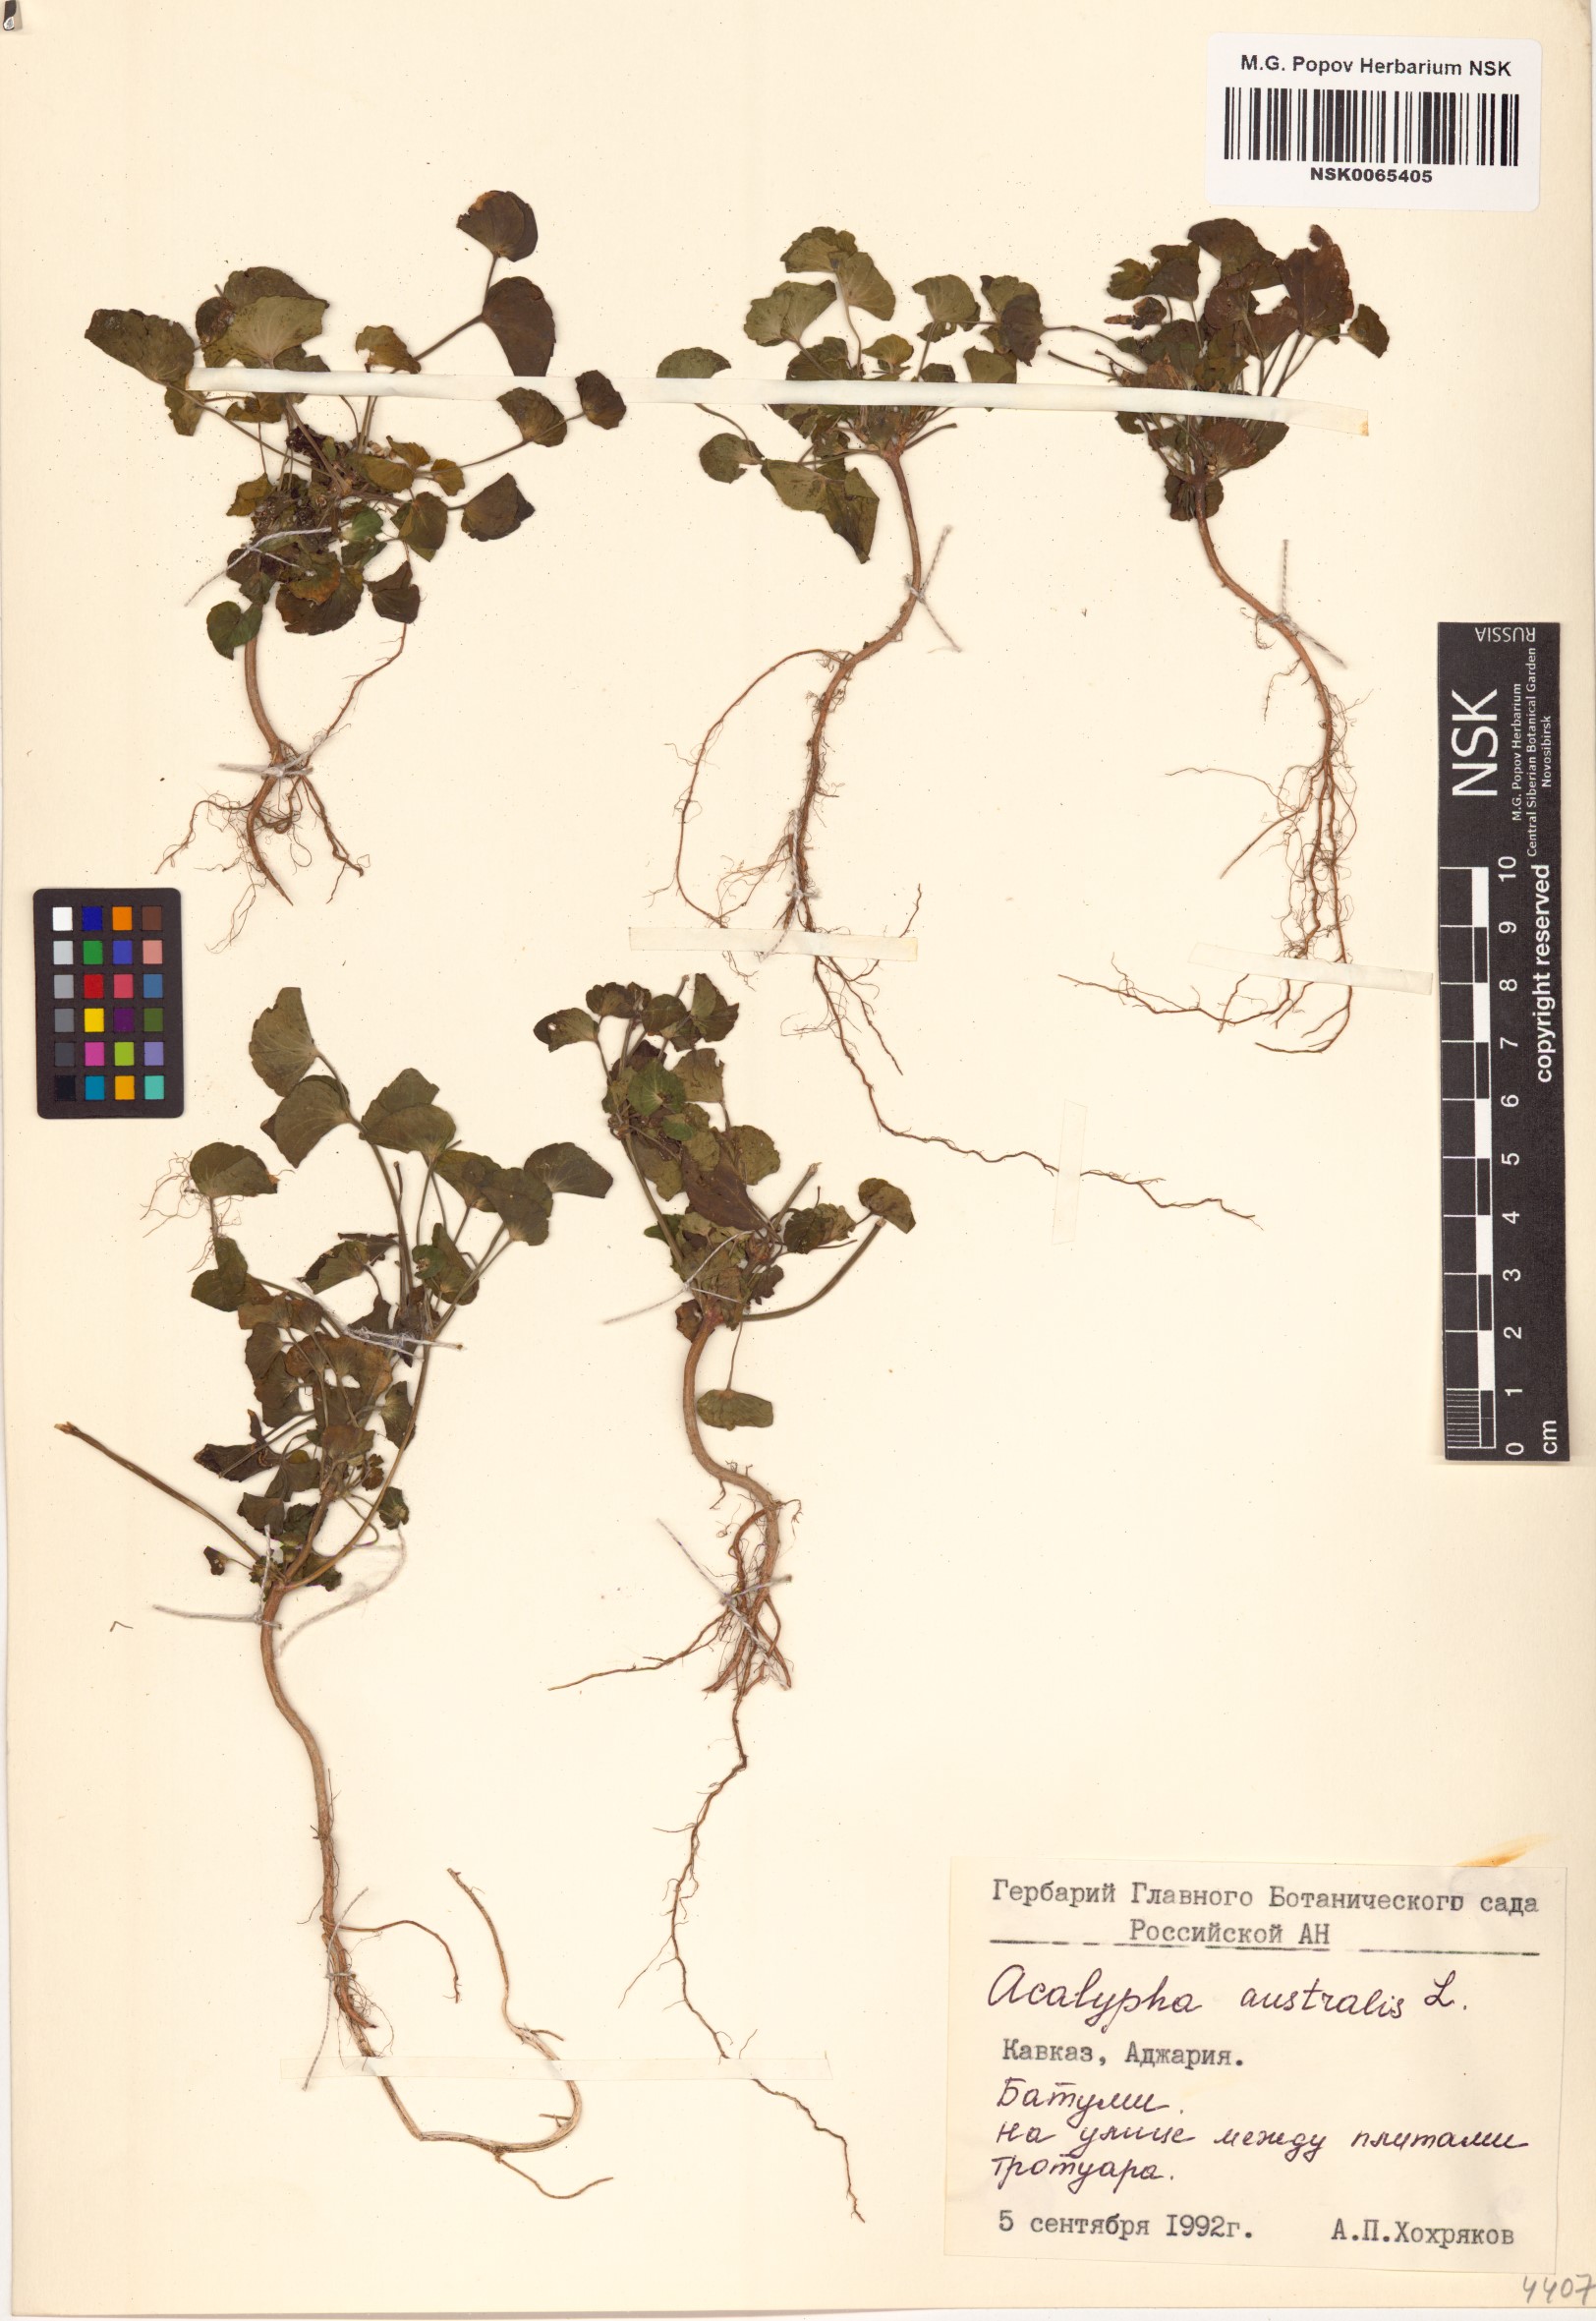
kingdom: Plantae
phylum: Tracheophyta
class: Magnoliopsida
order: Malpighiales
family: Euphorbiaceae
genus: Acalypha
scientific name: Acalypha australis
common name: Asian copperleaf
